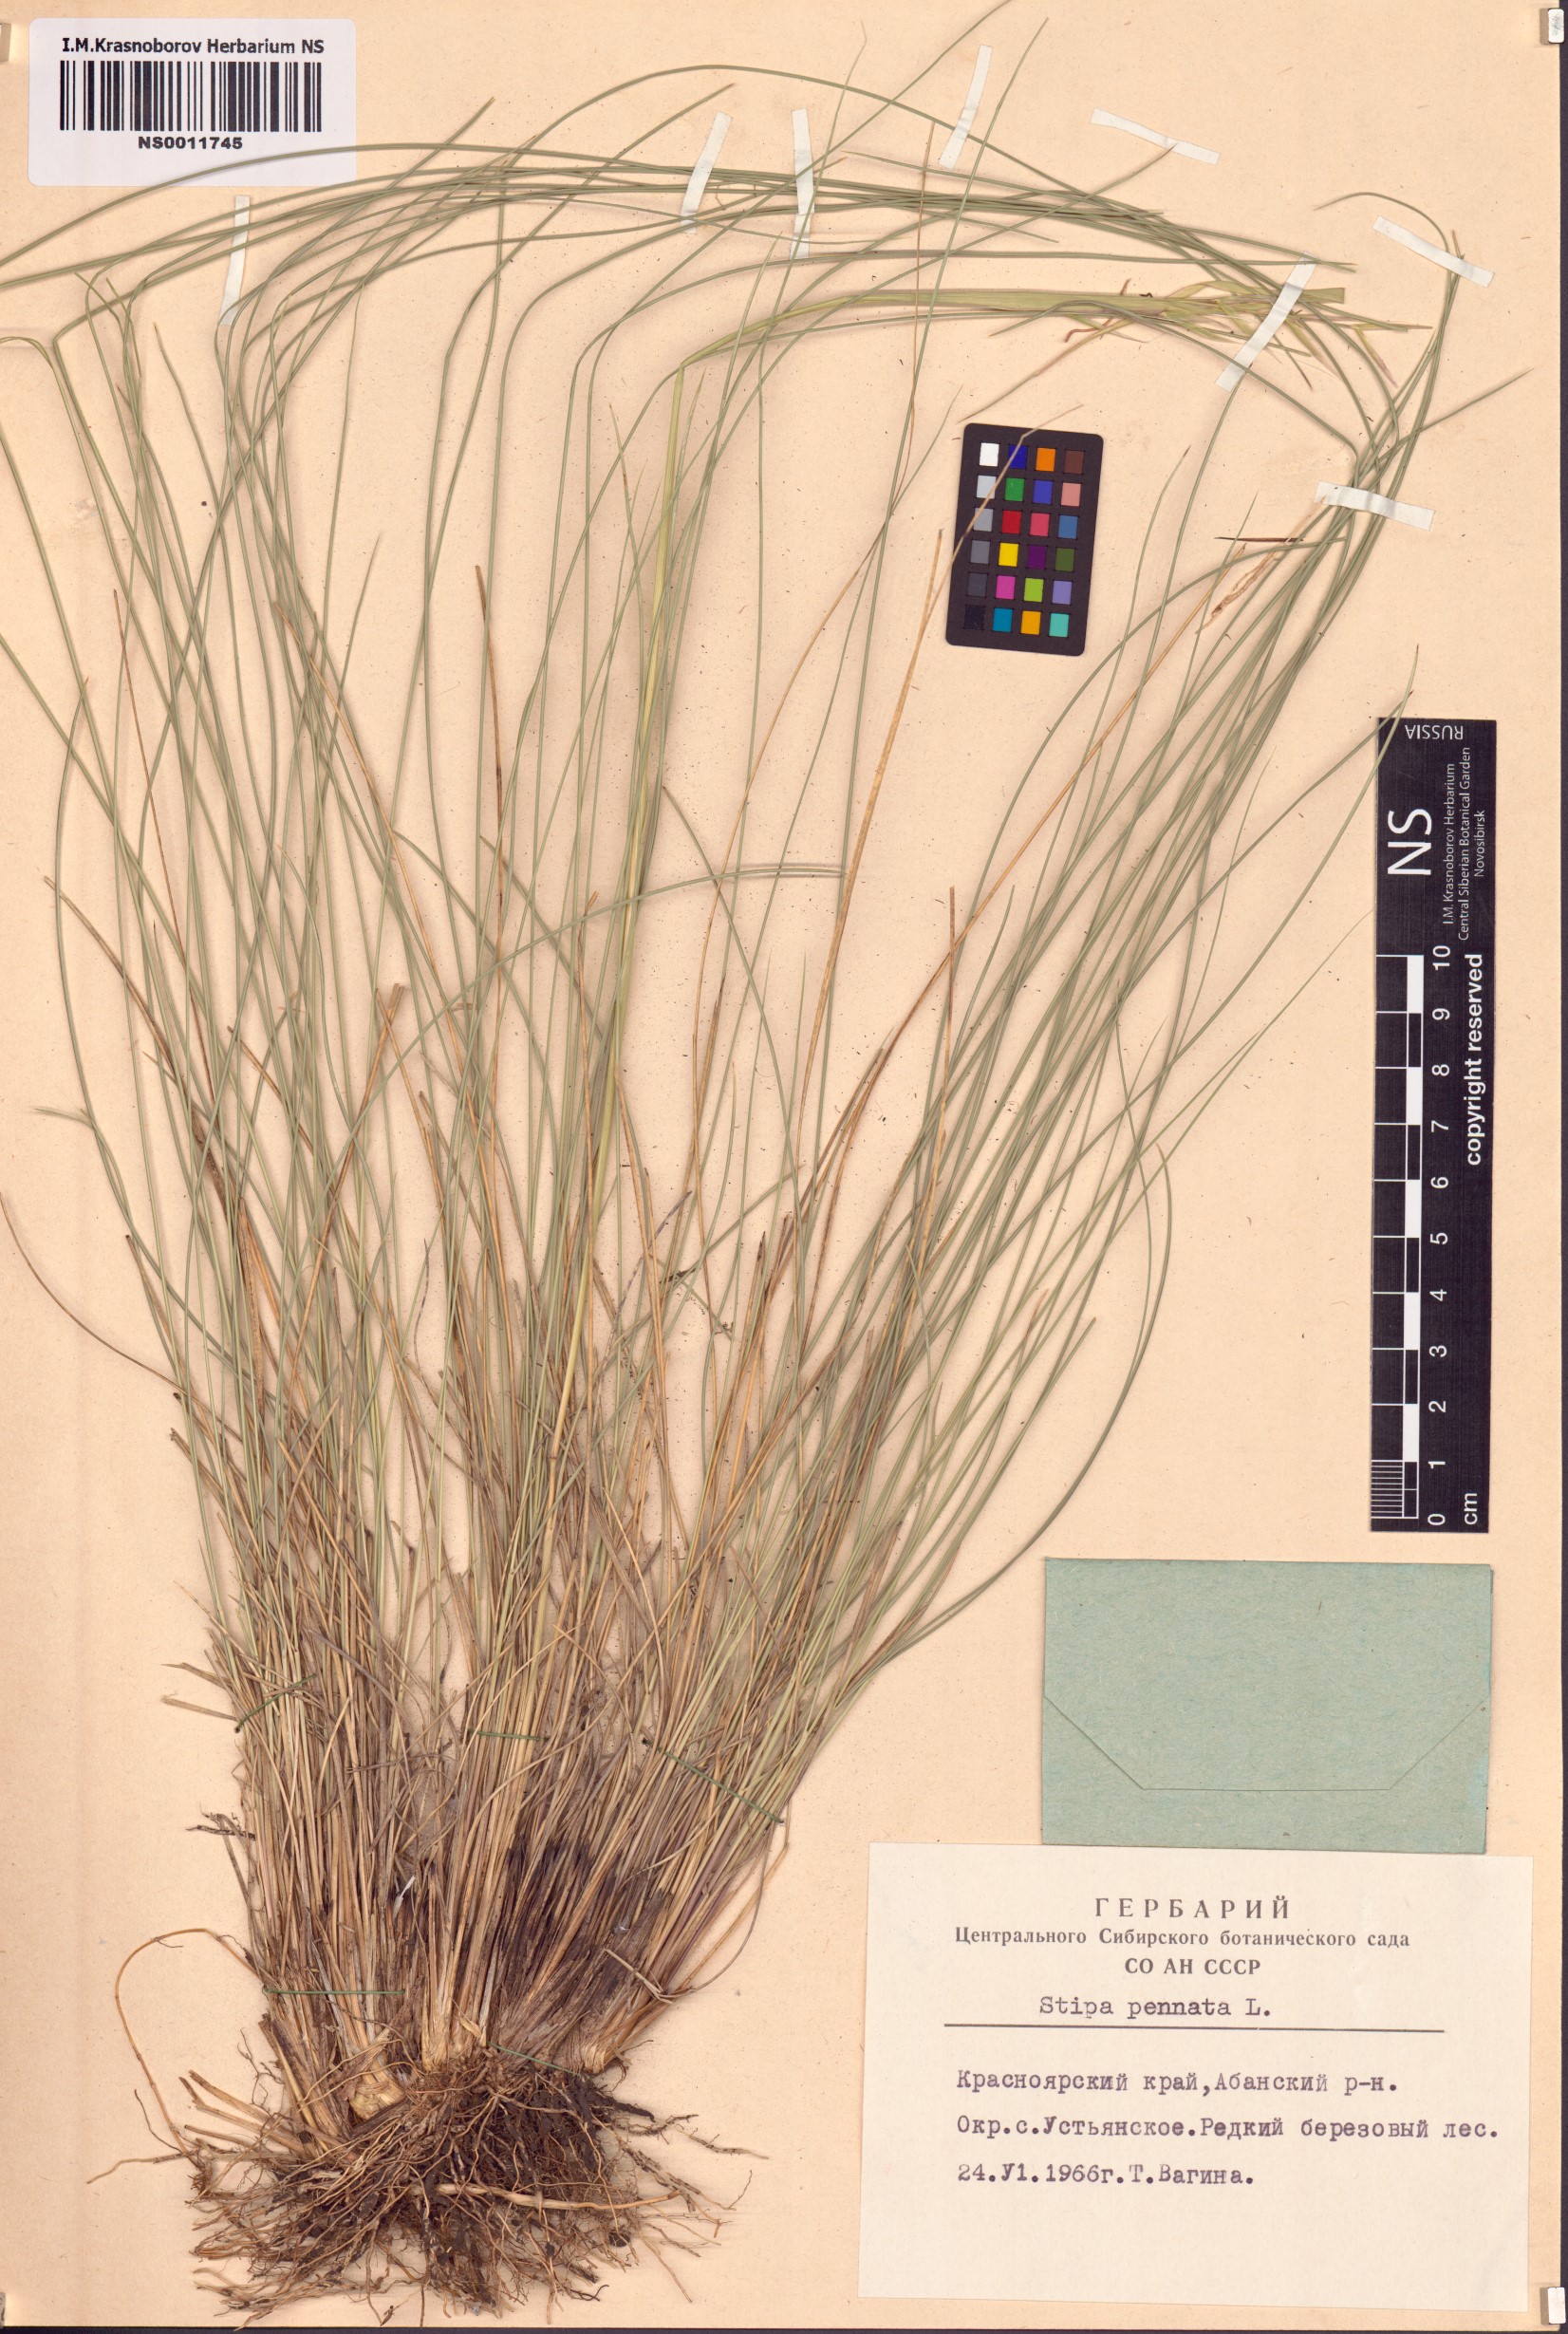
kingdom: Plantae
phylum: Tracheophyta
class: Liliopsida
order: Poales
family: Poaceae
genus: Stipa
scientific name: Stipa pennata
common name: European feather grass
